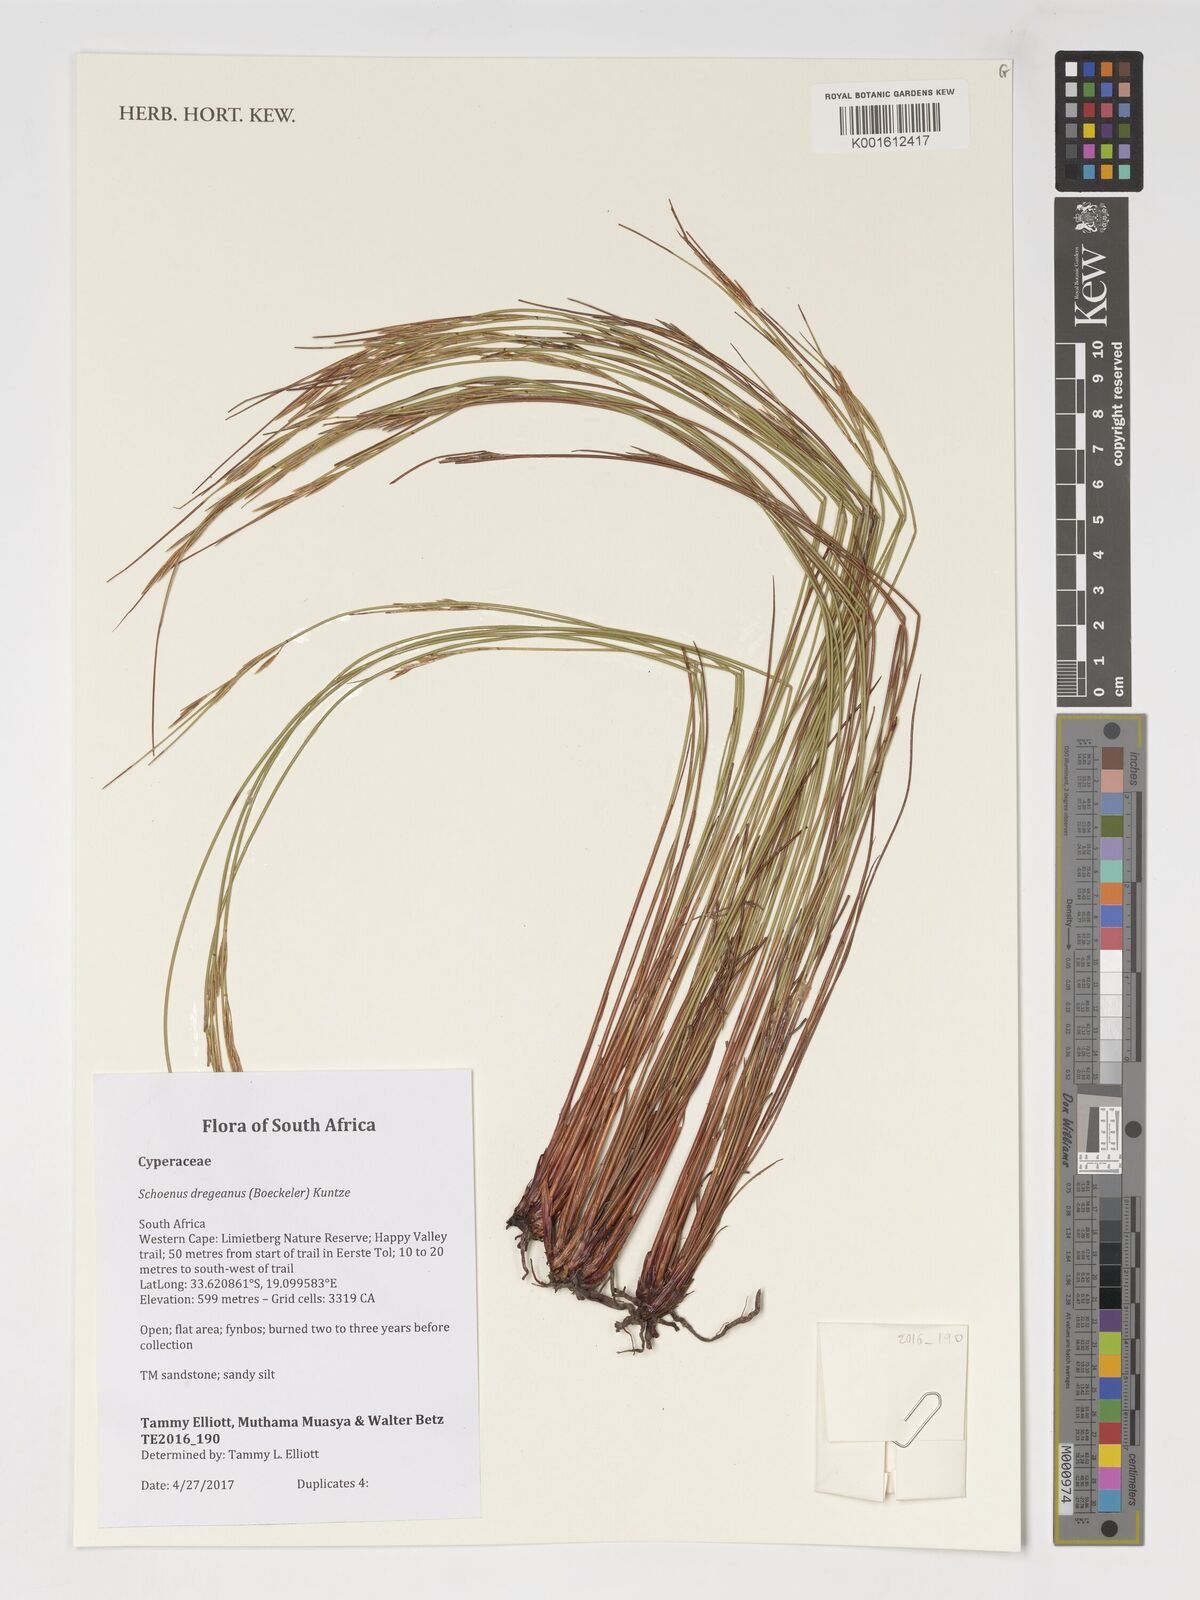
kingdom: Plantae
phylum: Tracheophyta
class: Liliopsida
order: Poales
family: Cyperaceae
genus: Schoenus
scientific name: Schoenus dregeanus
